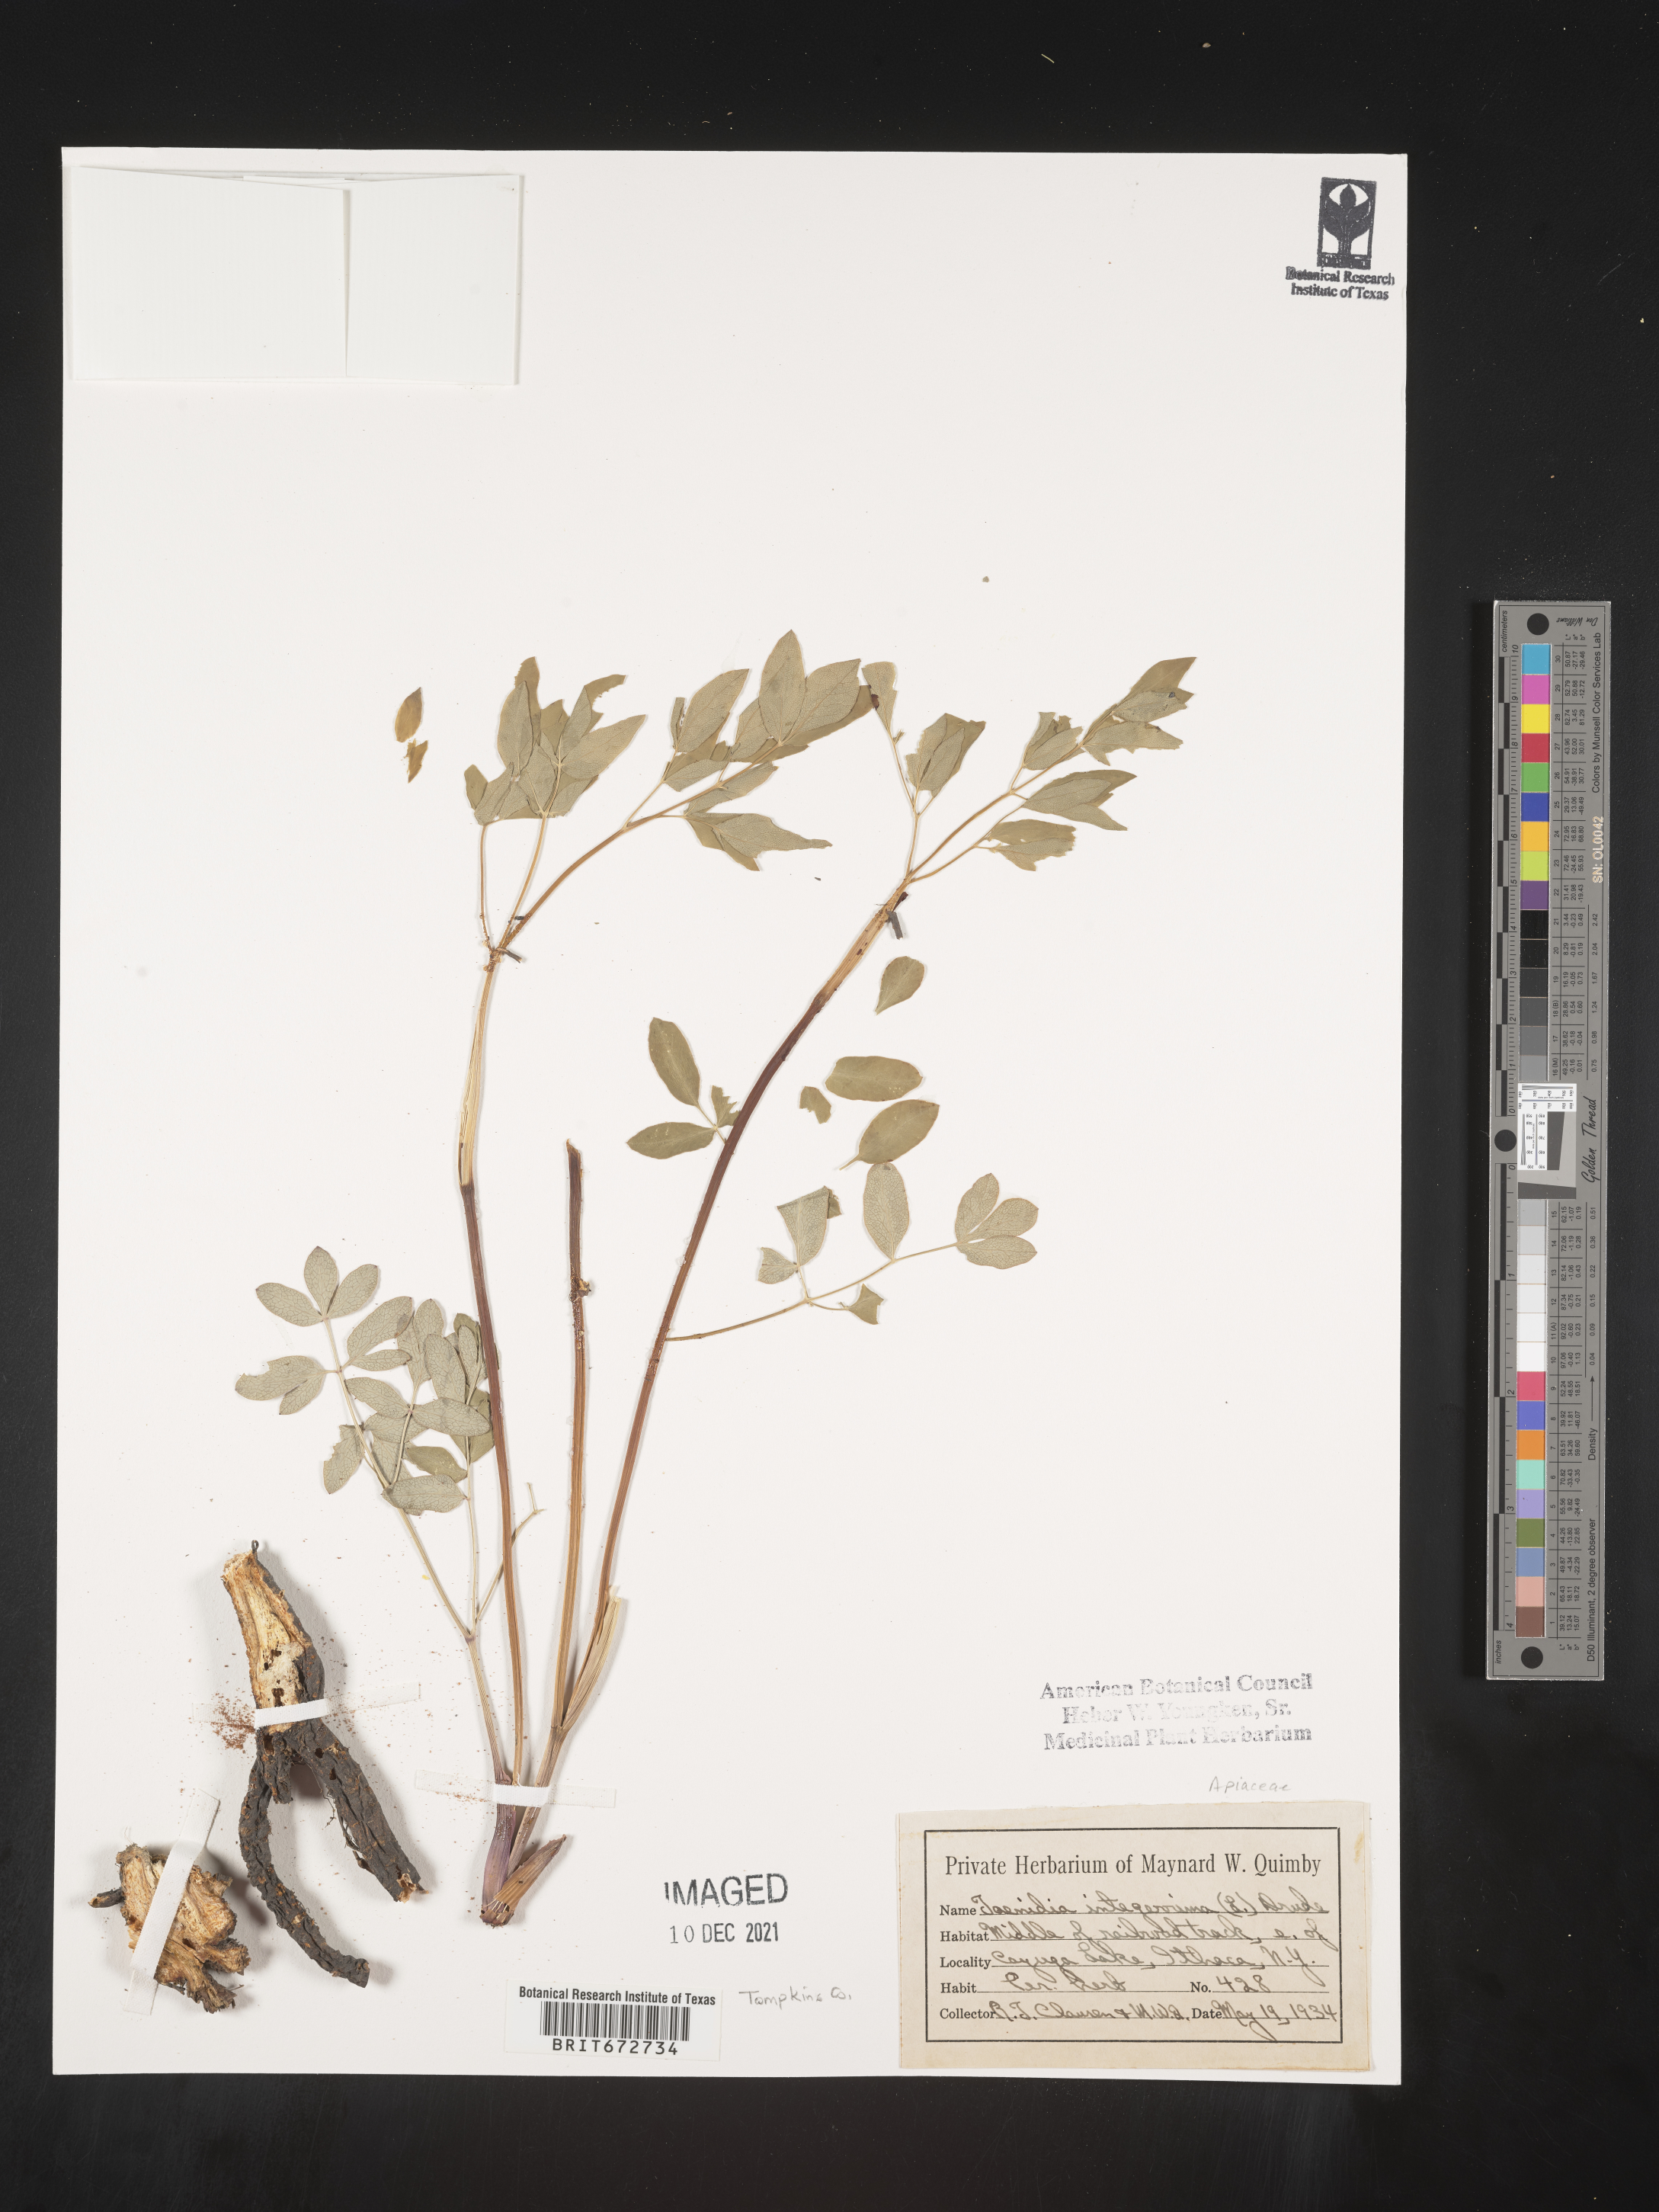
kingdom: Plantae
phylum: Tracheophyta
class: Magnoliopsida
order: Apiales
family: Apiaceae
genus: Taenidia
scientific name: Taenidia
